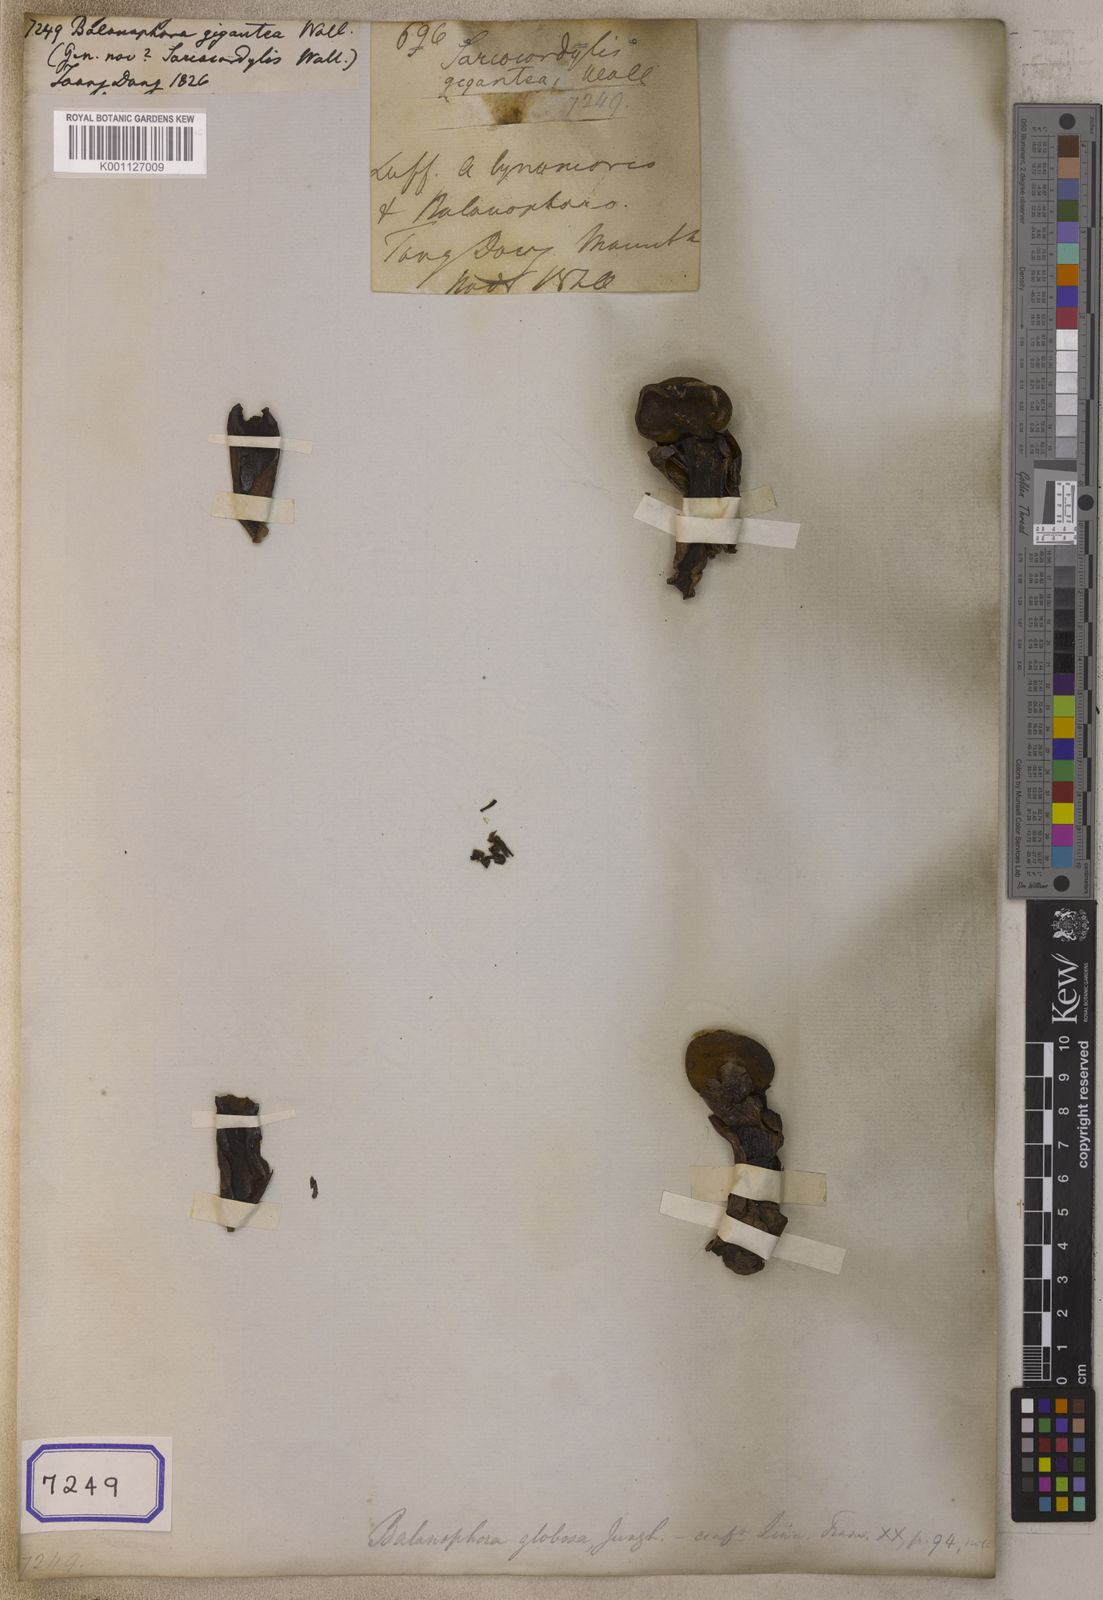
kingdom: Plantae
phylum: Tracheophyta
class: Magnoliopsida
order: Santalales
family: Balanophoraceae
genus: Balanophora
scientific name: Balanophora
